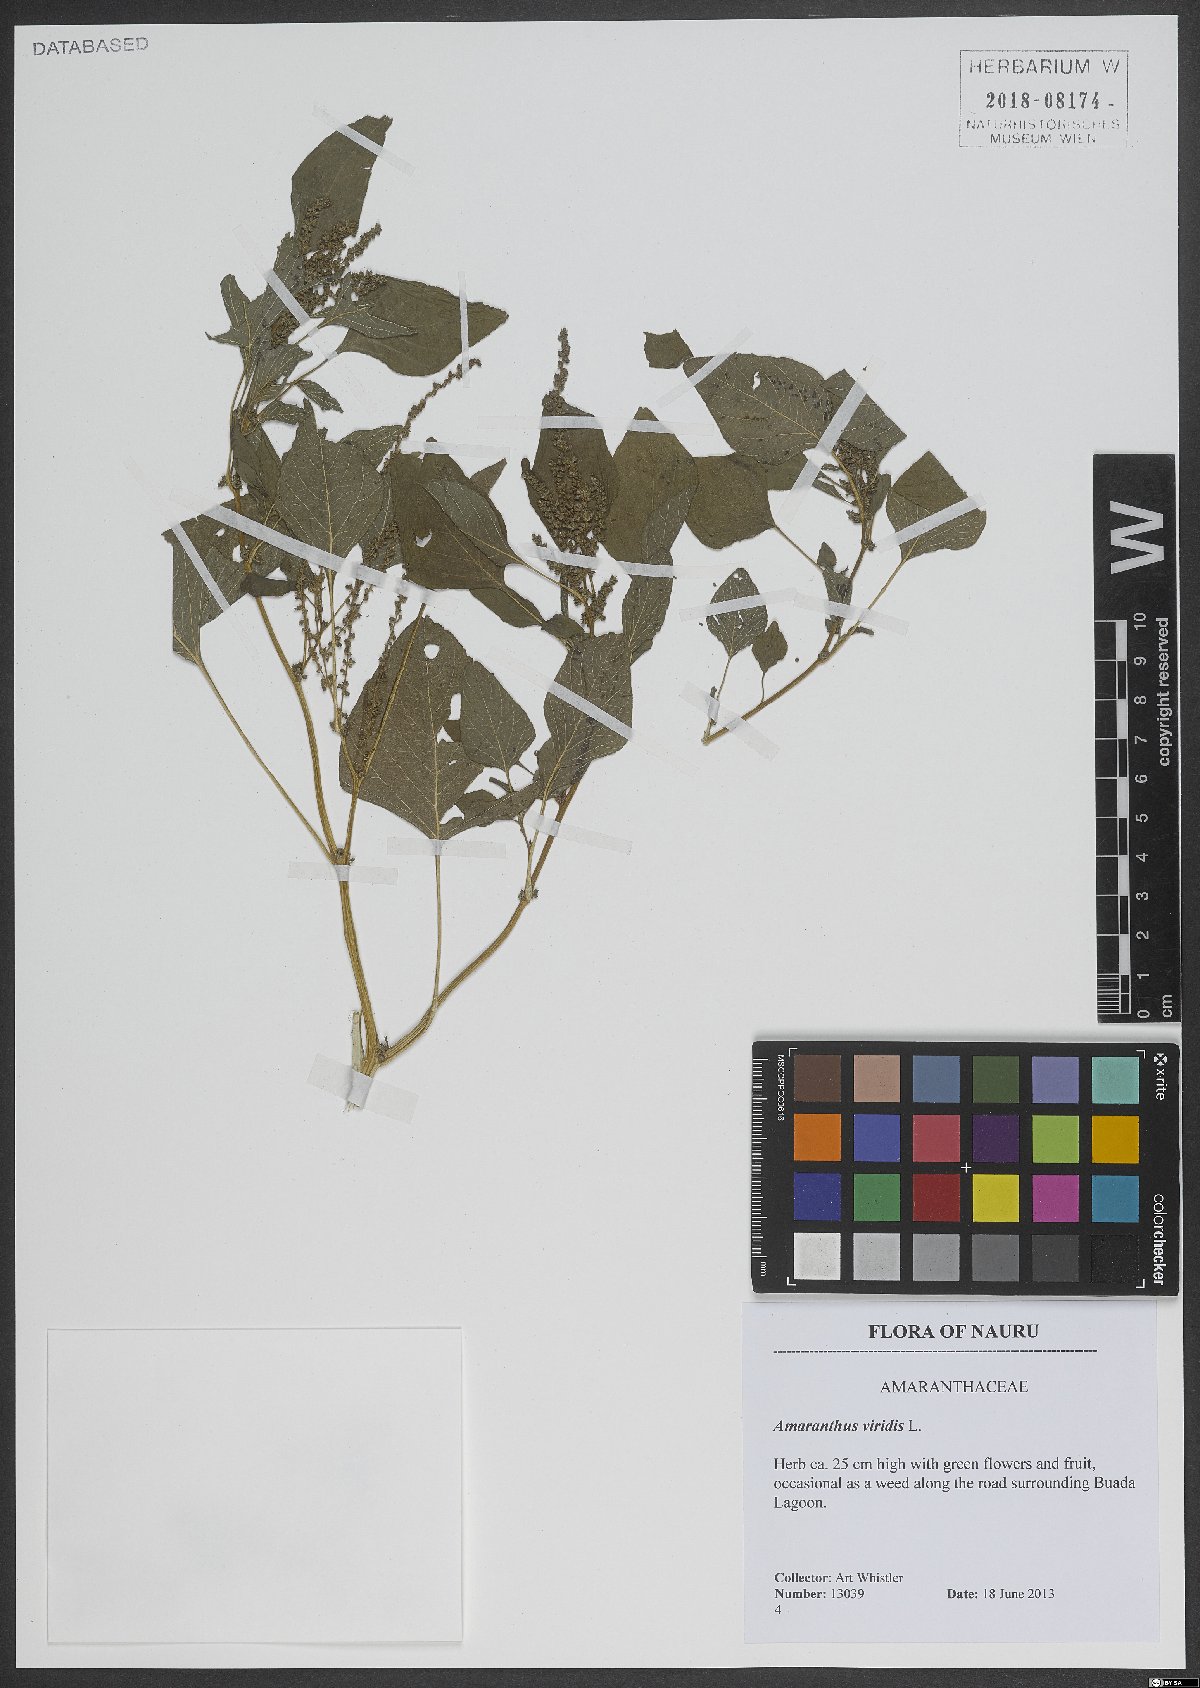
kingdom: Plantae
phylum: Tracheophyta
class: Magnoliopsida
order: Caryophyllales
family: Amaranthaceae
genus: Amaranthus
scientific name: Amaranthus viridis
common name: Slender amaranth
